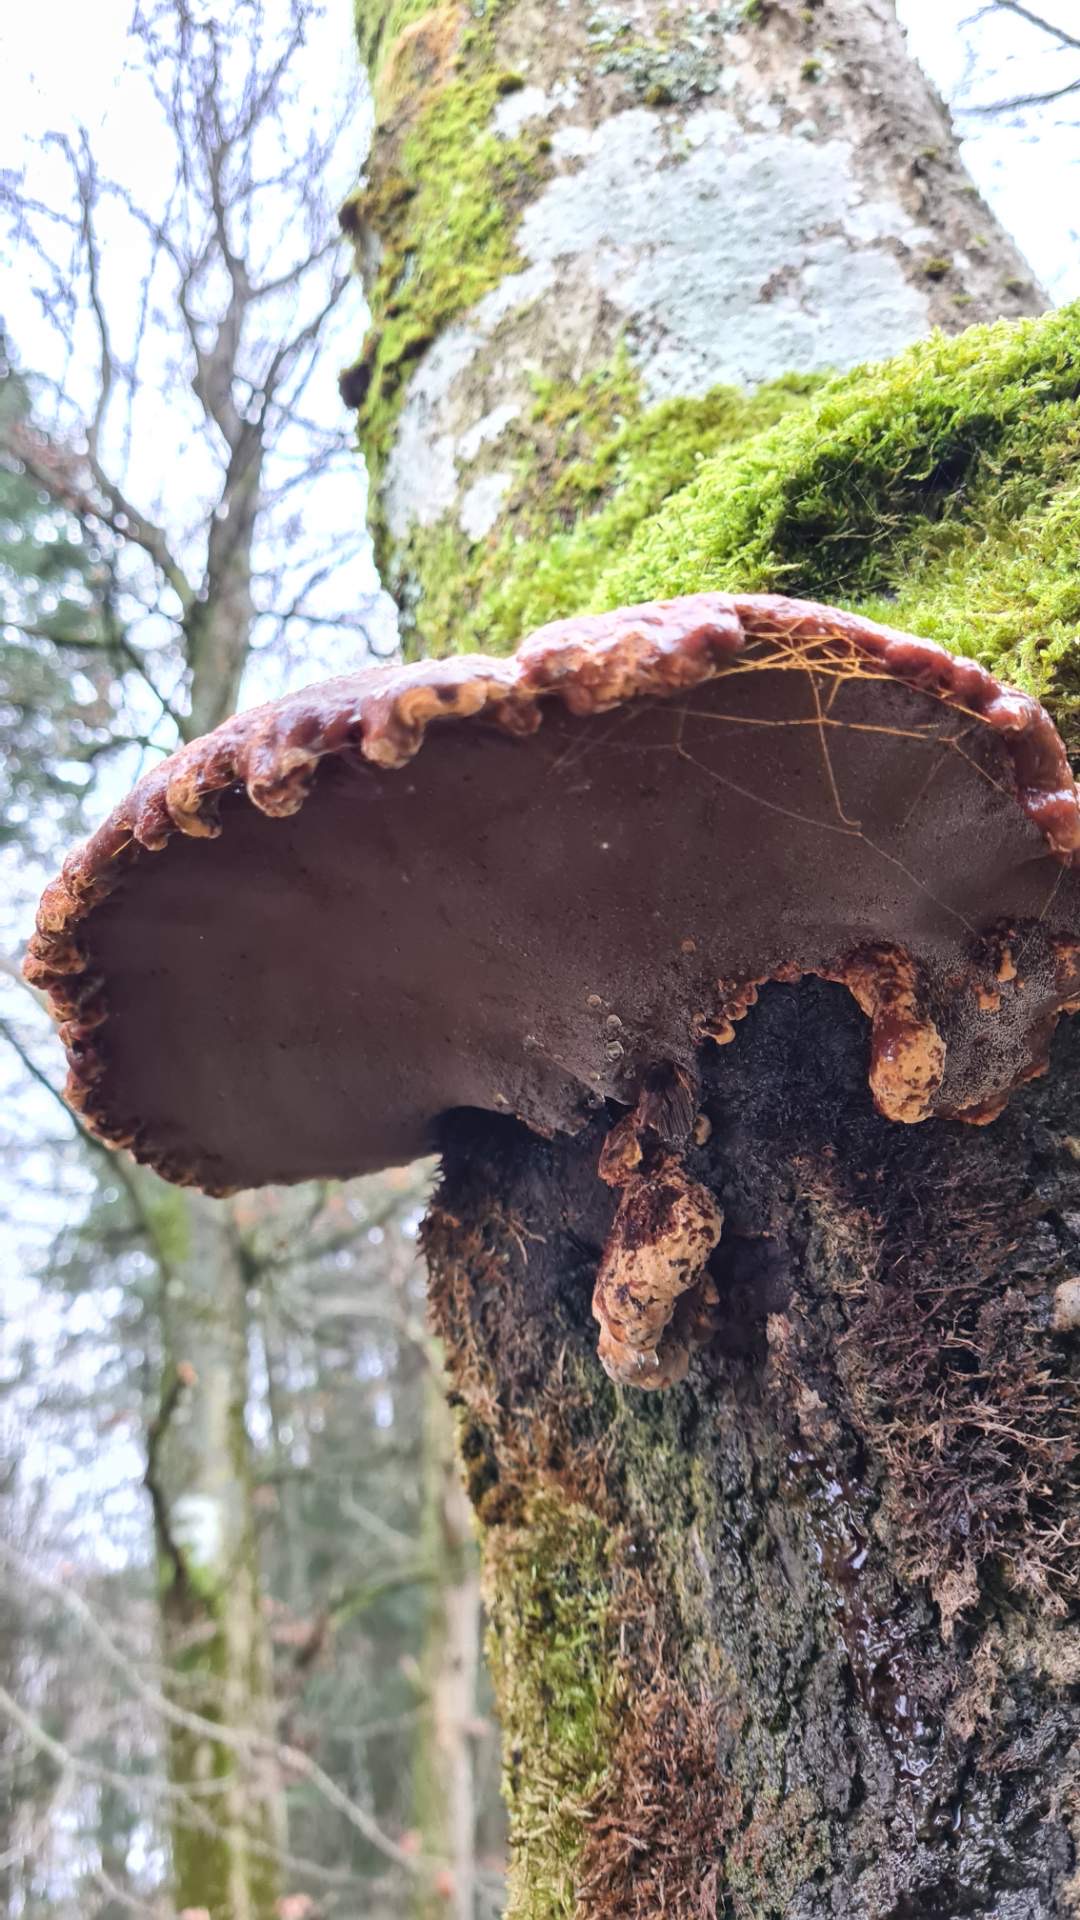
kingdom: Fungi
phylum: Basidiomycota
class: Agaricomycetes
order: Hymenochaetales
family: Hymenochaetaceae
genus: Inonotus
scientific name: Inonotus cuticularis
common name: kroghåret spejlporesvamp
